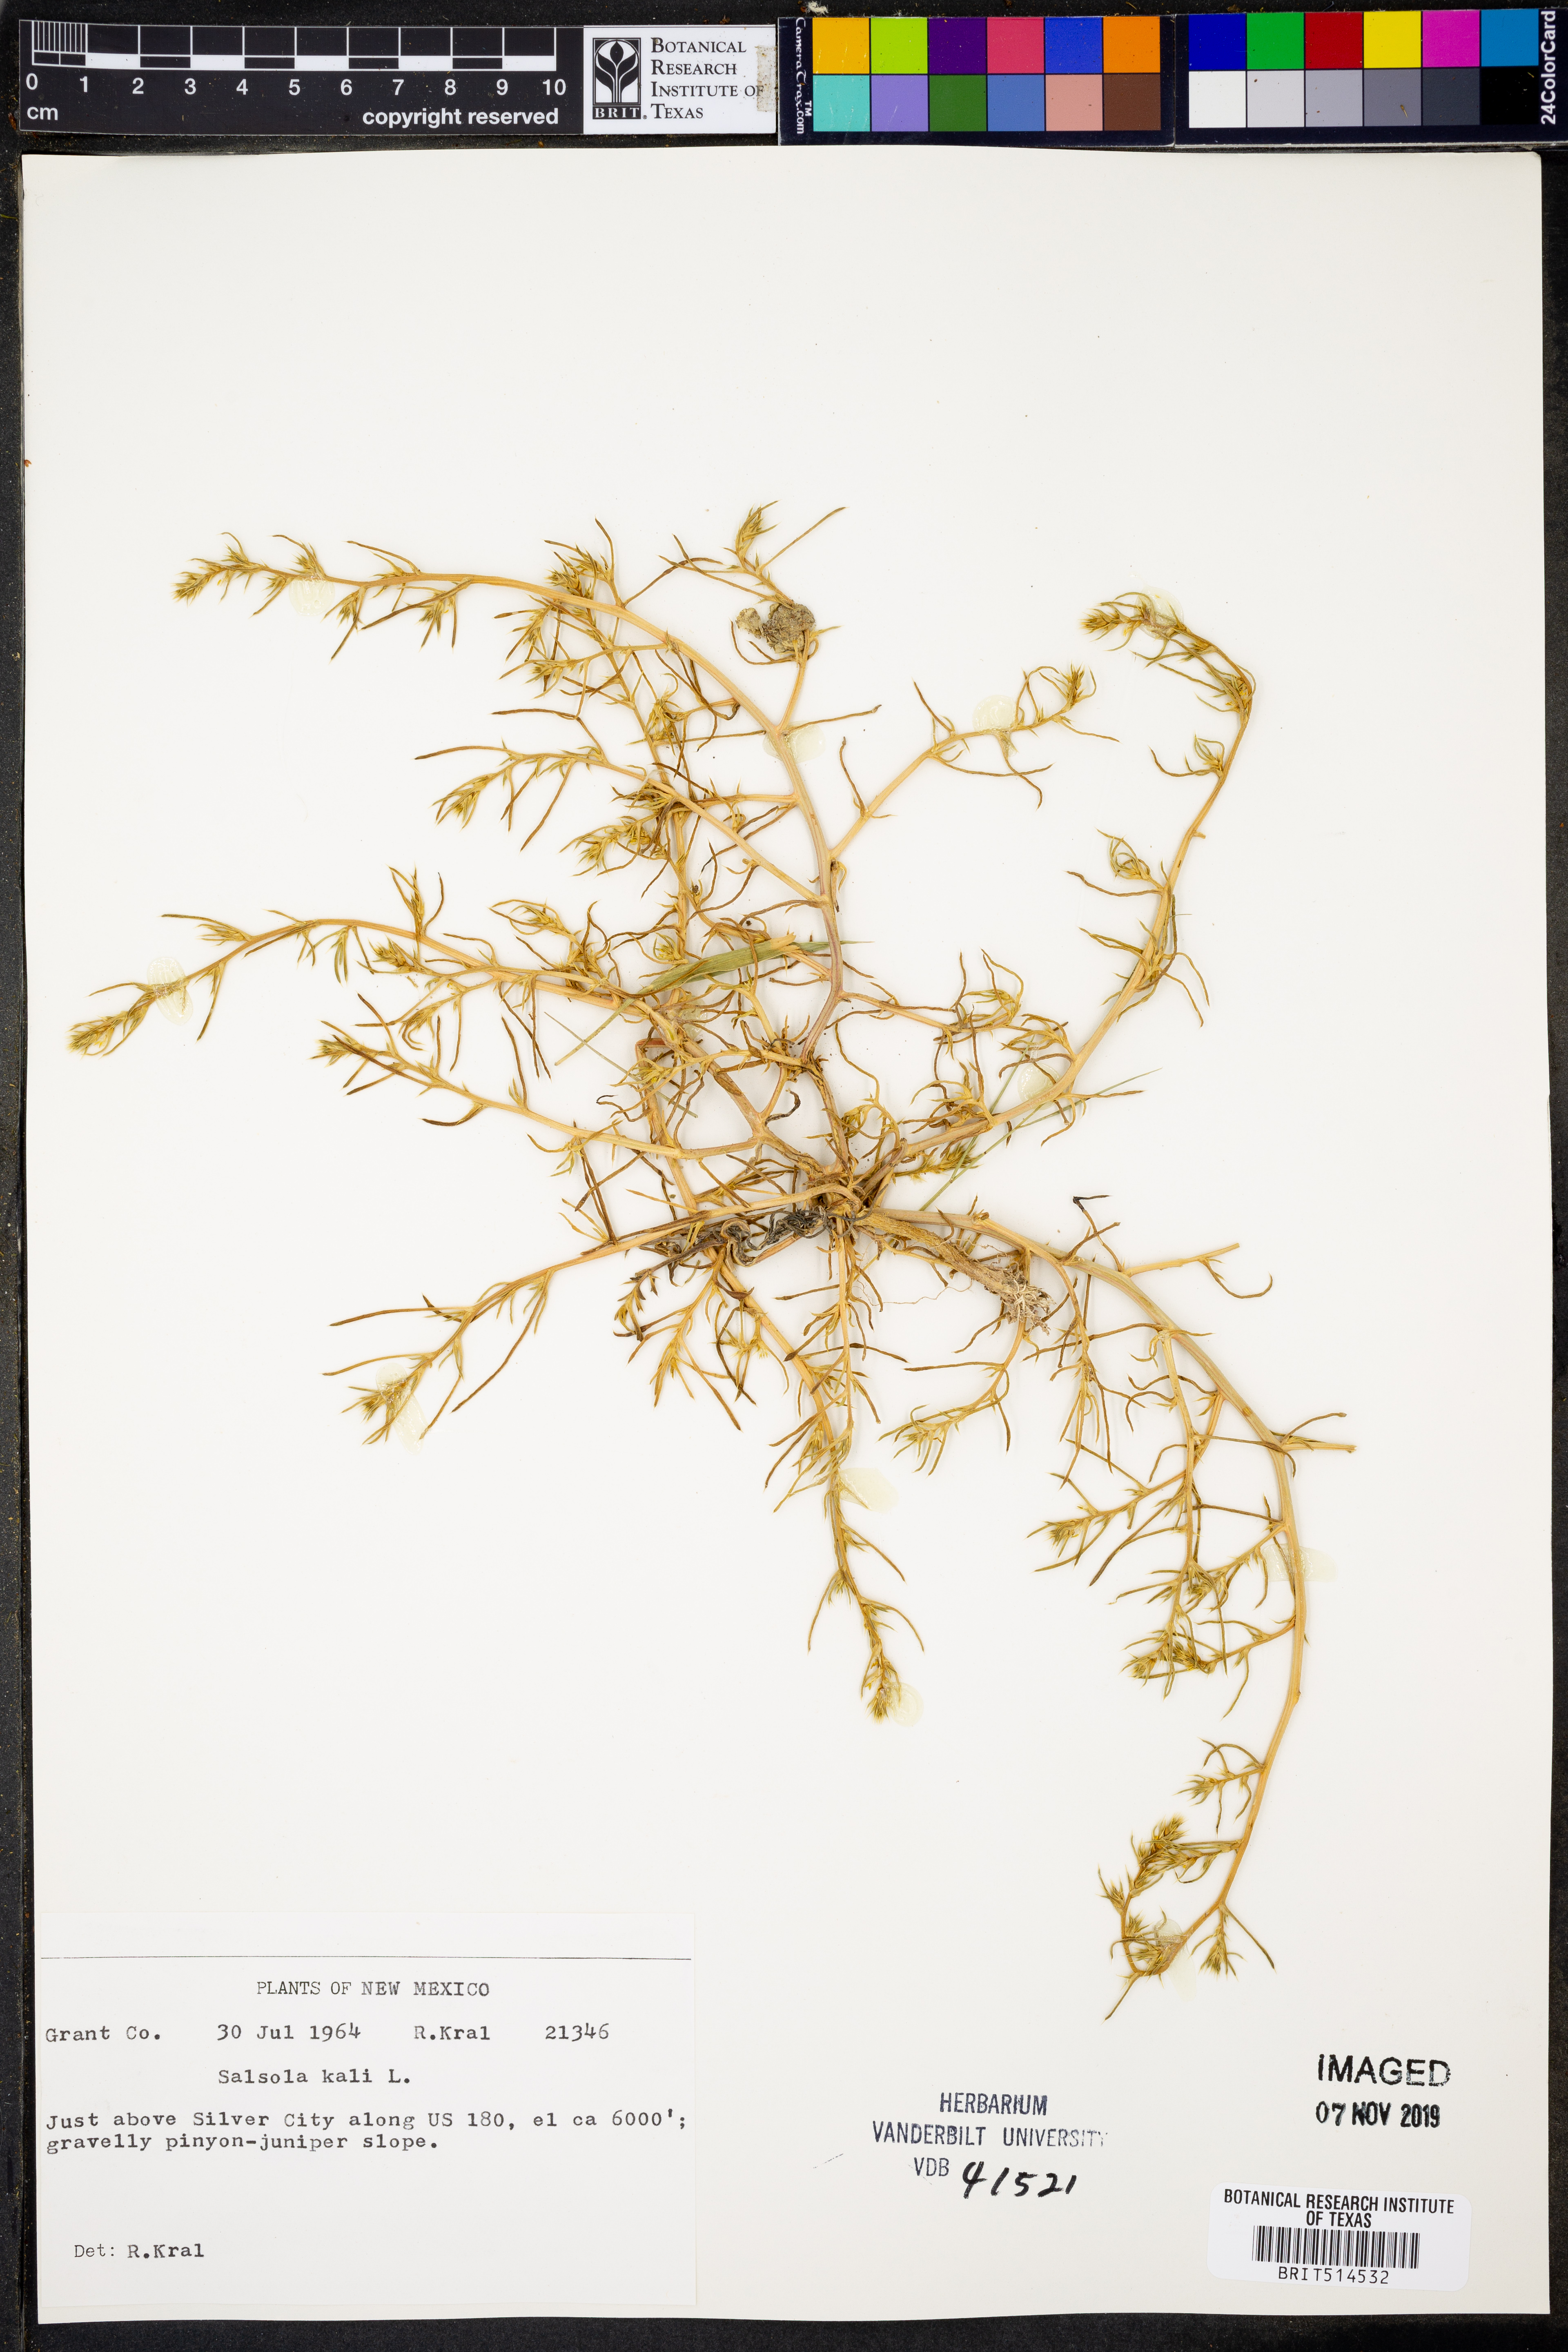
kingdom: Plantae
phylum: Tracheophyta
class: Magnoliopsida
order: Caryophyllales
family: Amaranthaceae
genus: Salsola
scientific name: Salsola tragus
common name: Prickly russian thistle
